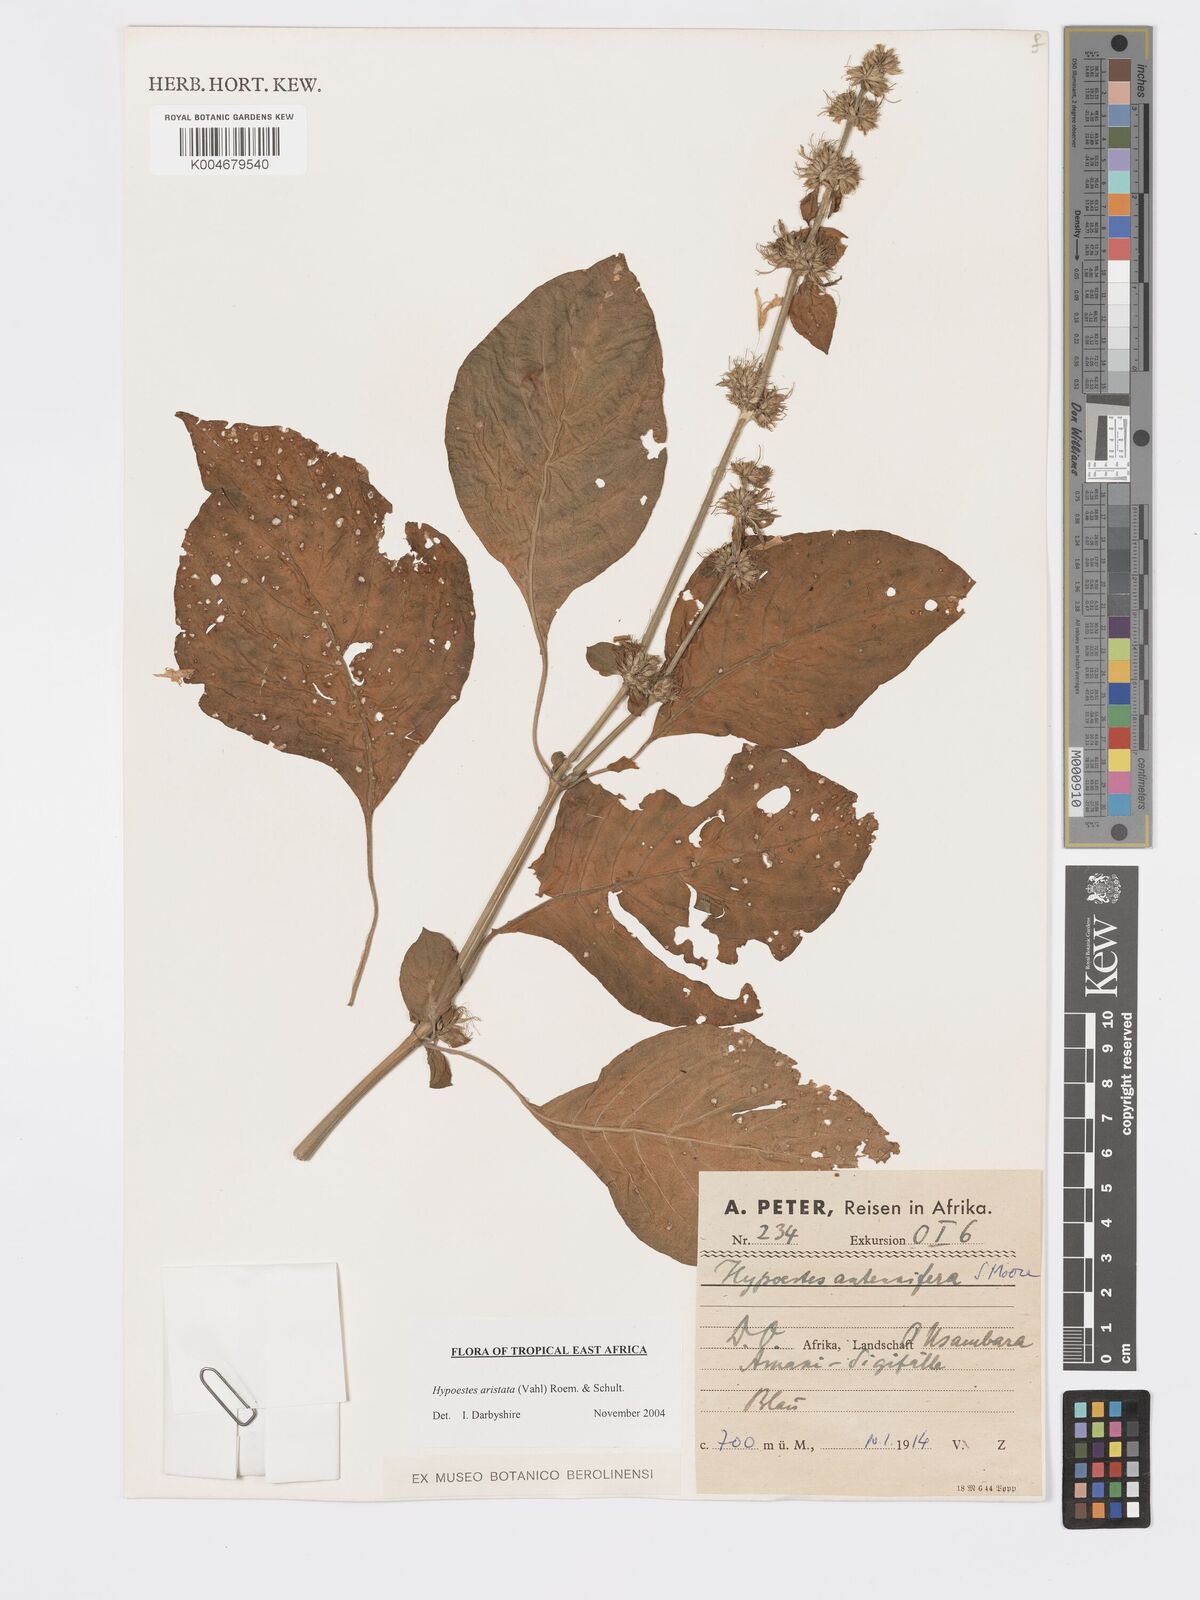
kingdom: Plantae
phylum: Tracheophyta
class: Magnoliopsida
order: Lamiales
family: Acanthaceae
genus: Hypoestes
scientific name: Hypoestes aristata
